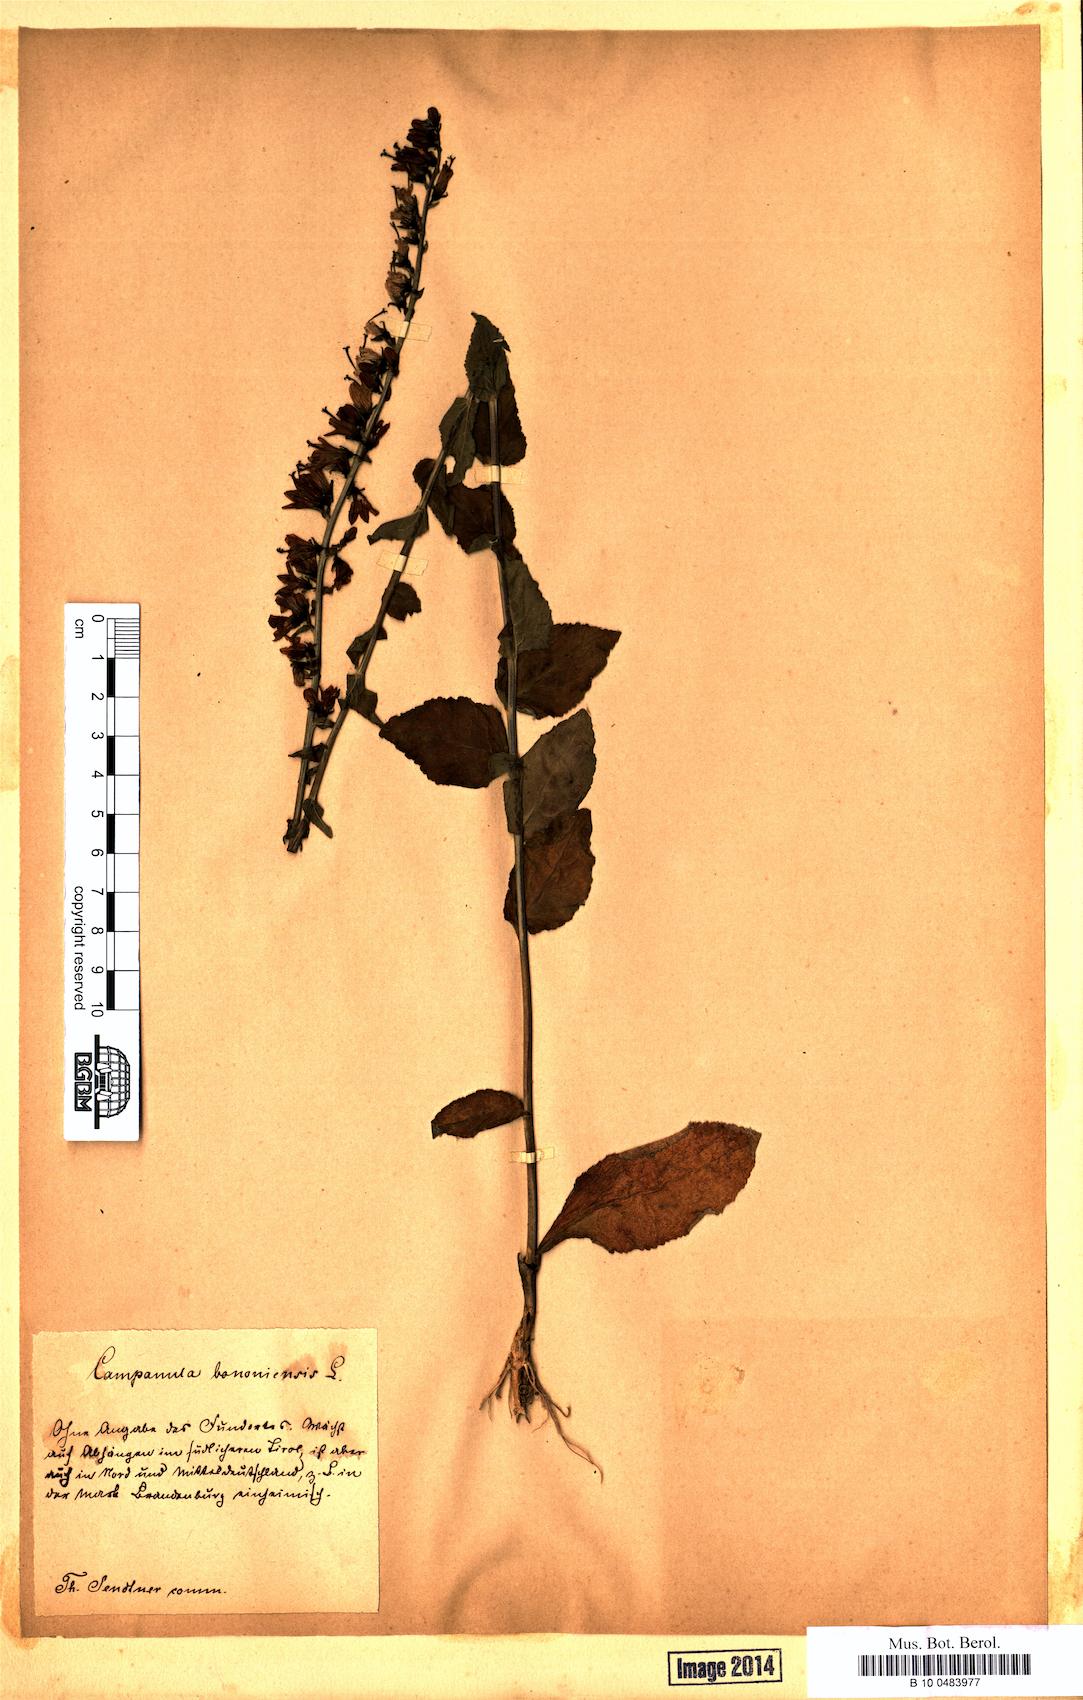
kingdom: Plantae
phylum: Tracheophyta
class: Magnoliopsida
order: Asterales
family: Campanulaceae
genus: Campanula
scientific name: Campanula bononiensis
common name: Pale bellflower
